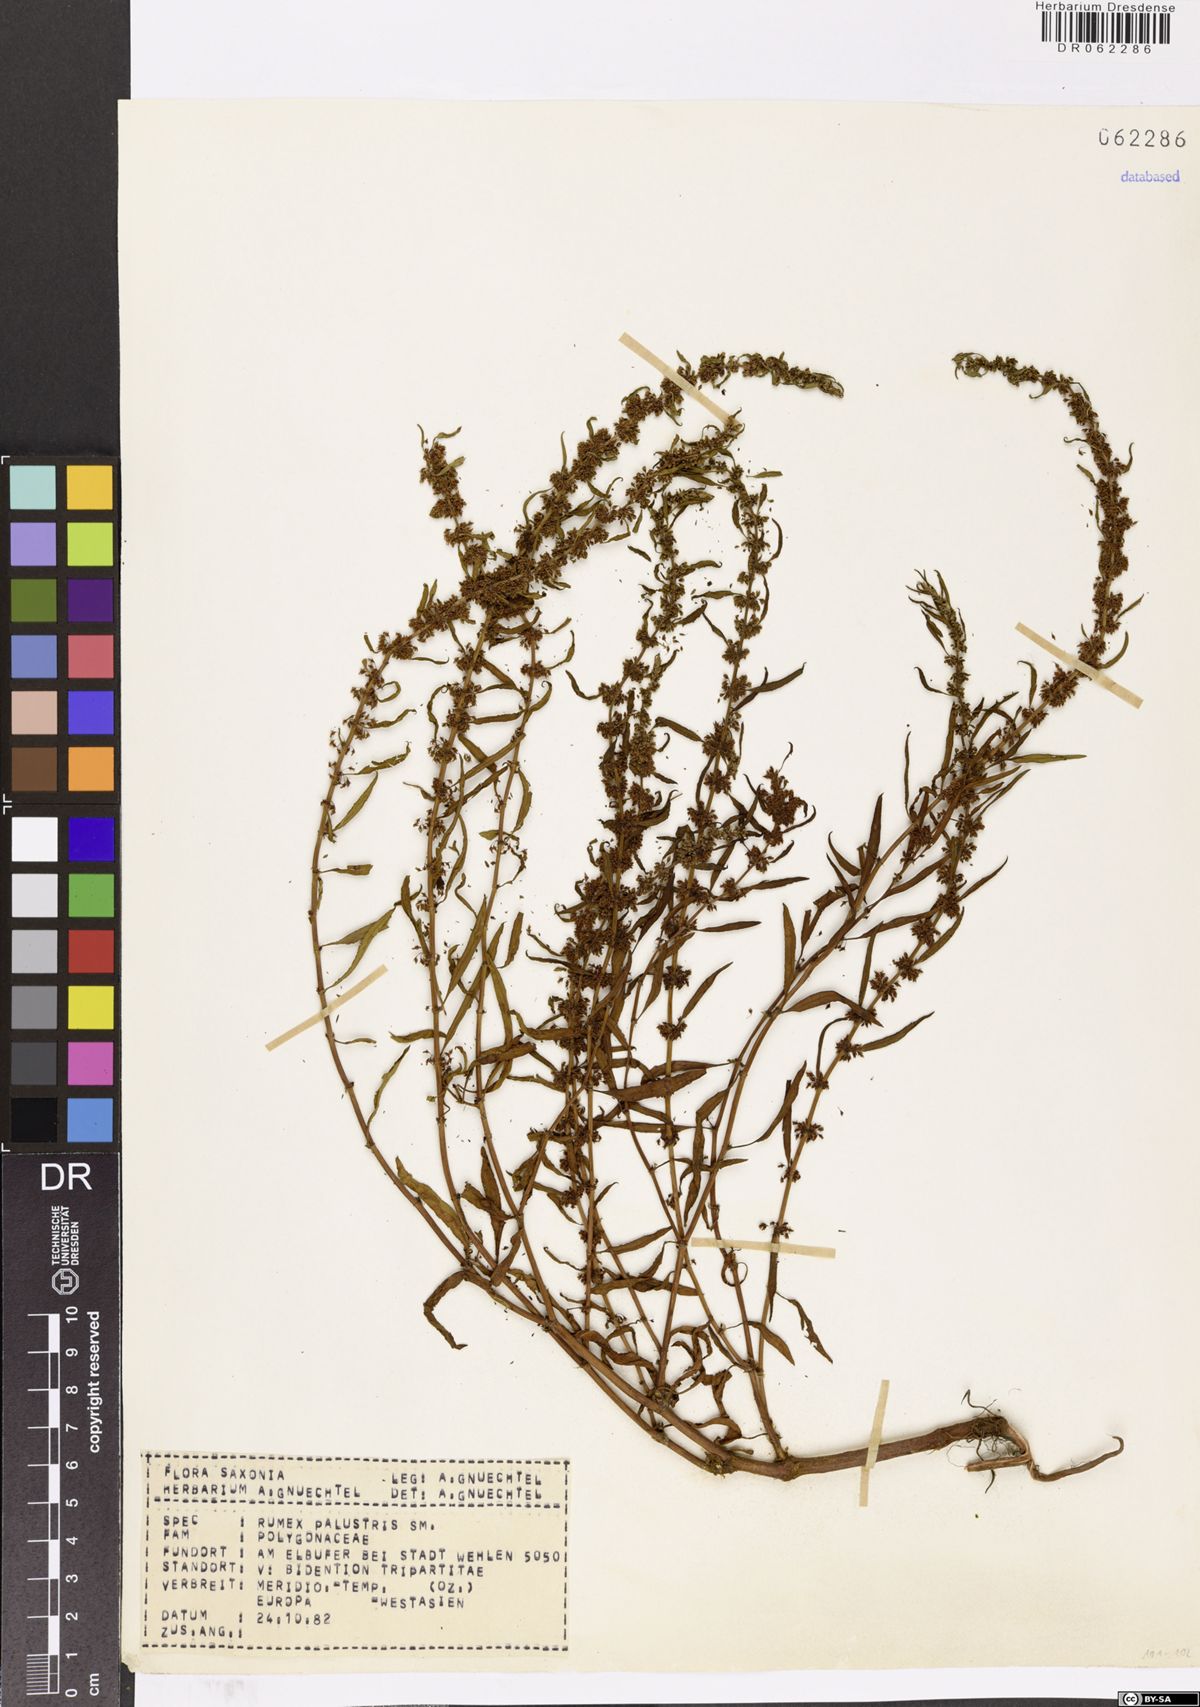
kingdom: Plantae
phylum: Tracheophyta
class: Magnoliopsida
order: Caryophyllales
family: Polygonaceae
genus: Rumex
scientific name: Rumex palustris
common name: Marsh dock
